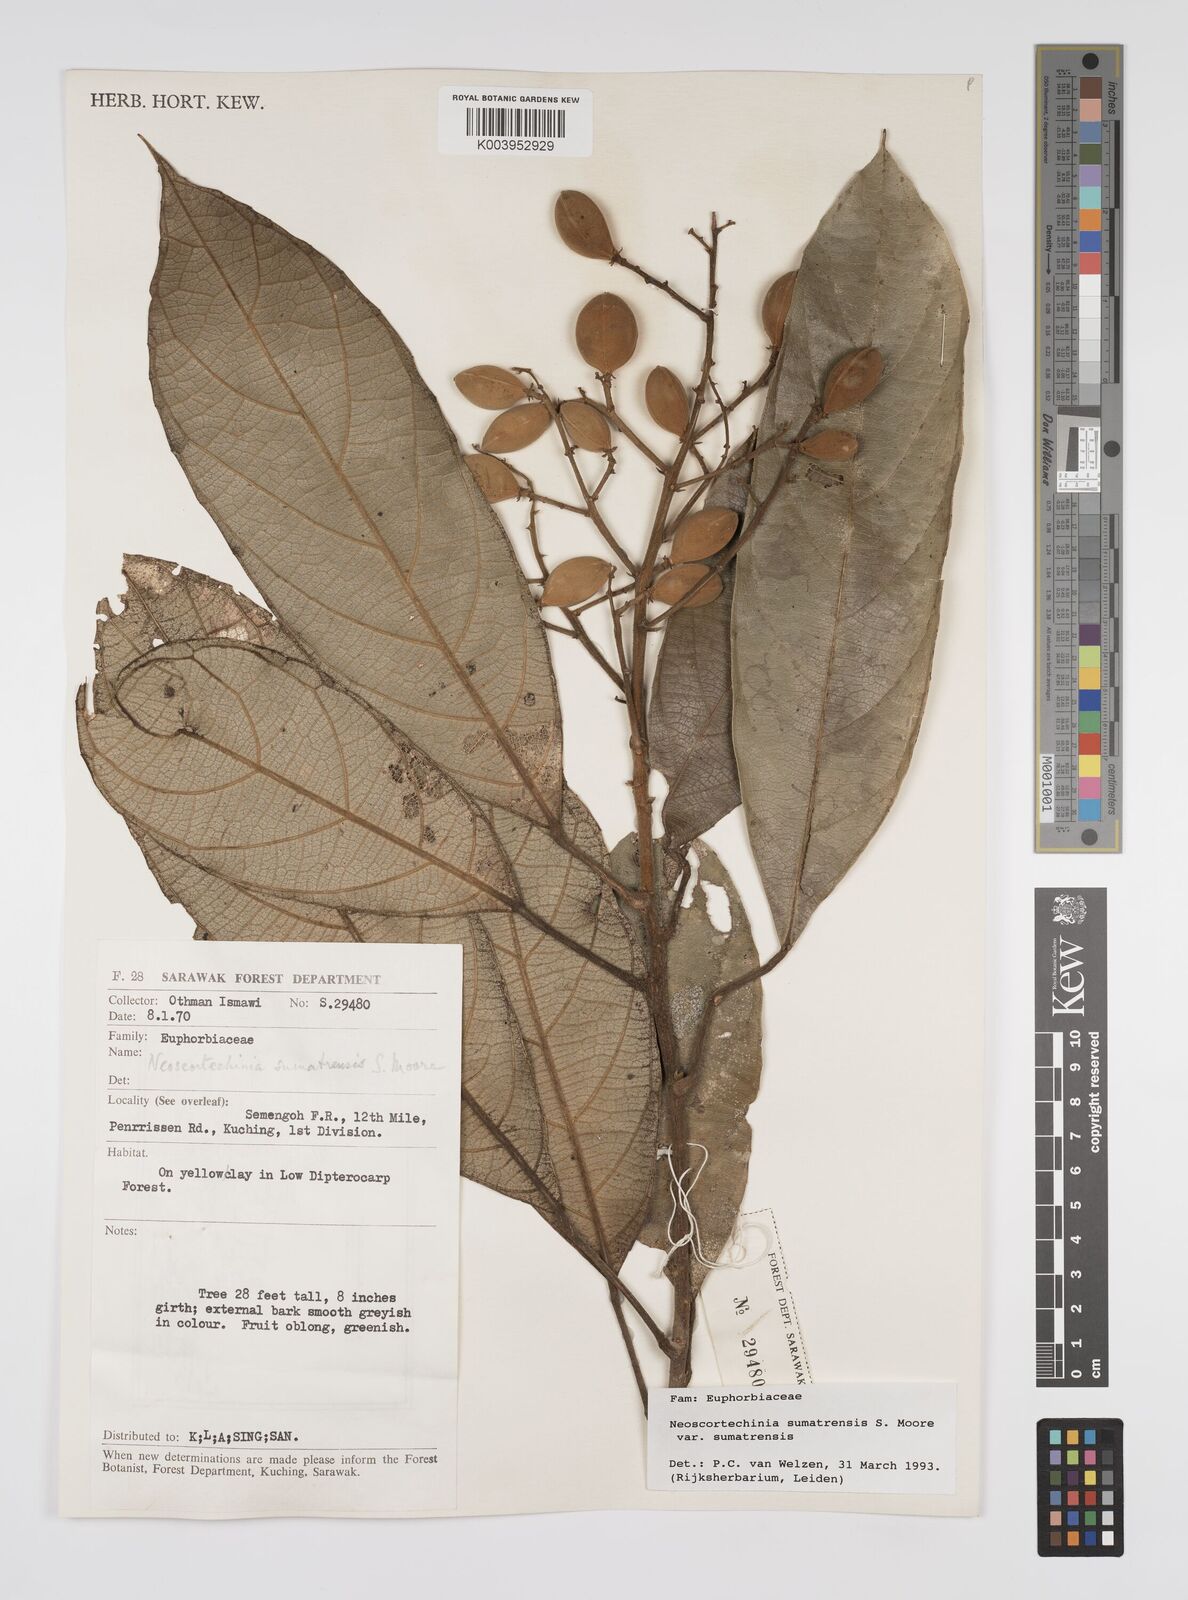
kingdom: Plantae
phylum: Tracheophyta
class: Magnoliopsida
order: Malpighiales
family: Euphorbiaceae
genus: Neoscortechinia
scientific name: Neoscortechinia sumatrensis
